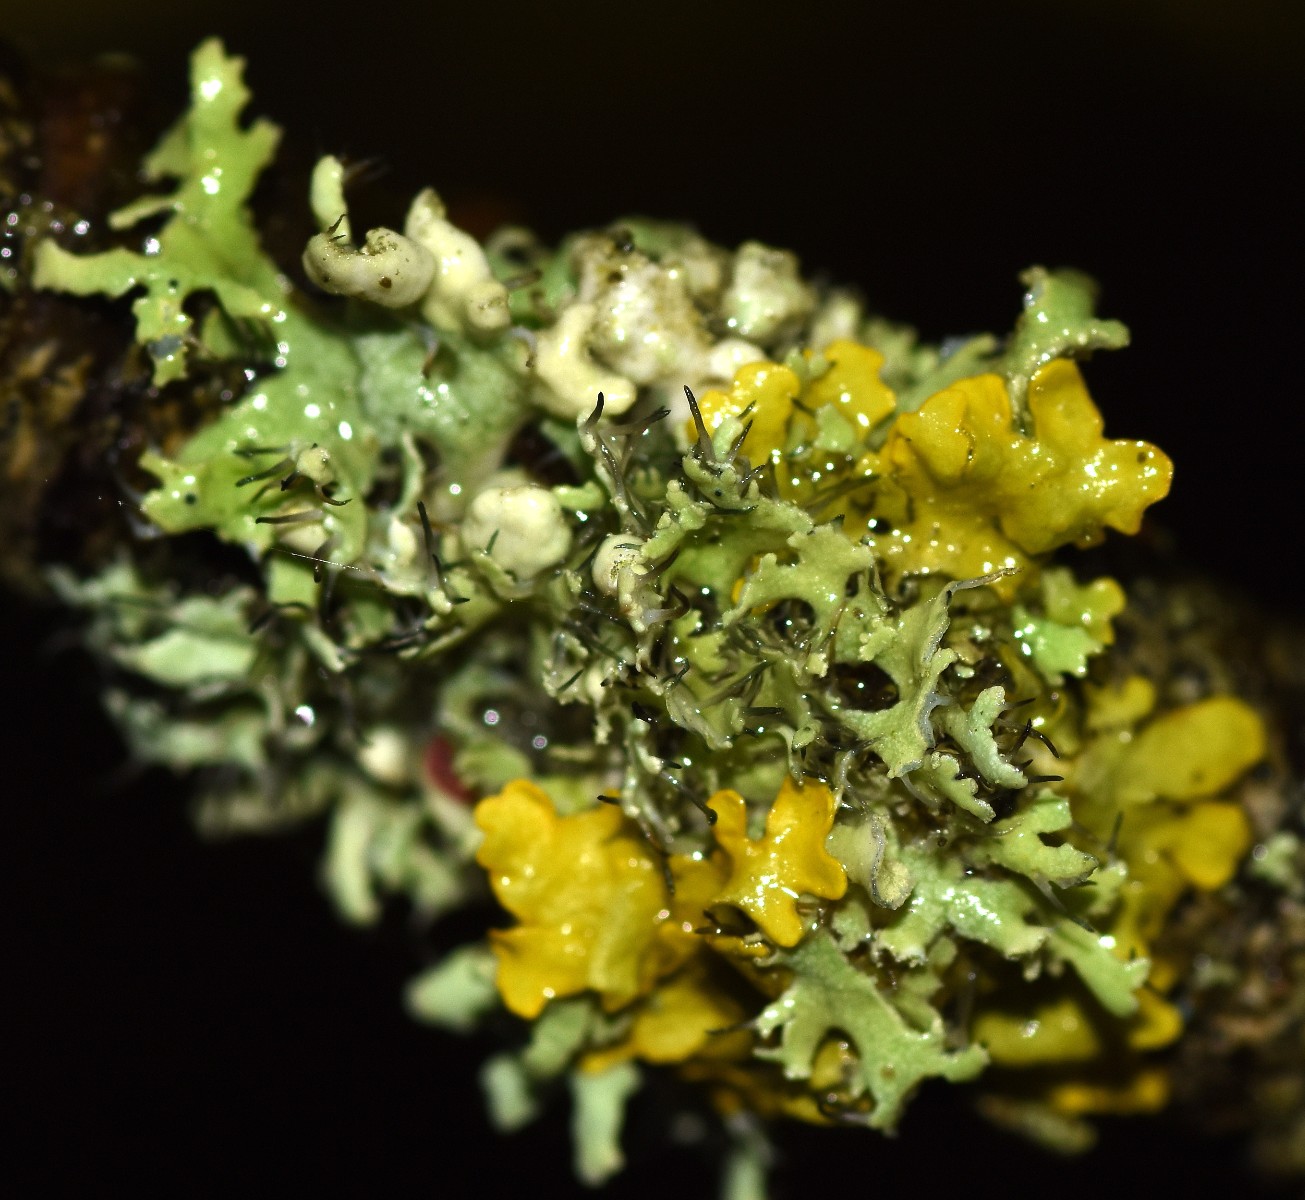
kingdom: Fungi
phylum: Ascomycota
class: Lecanoromycetes
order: Caliciales
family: Physciaceae
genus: Physcia
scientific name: Physcia tenella
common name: spæd rosetlav
